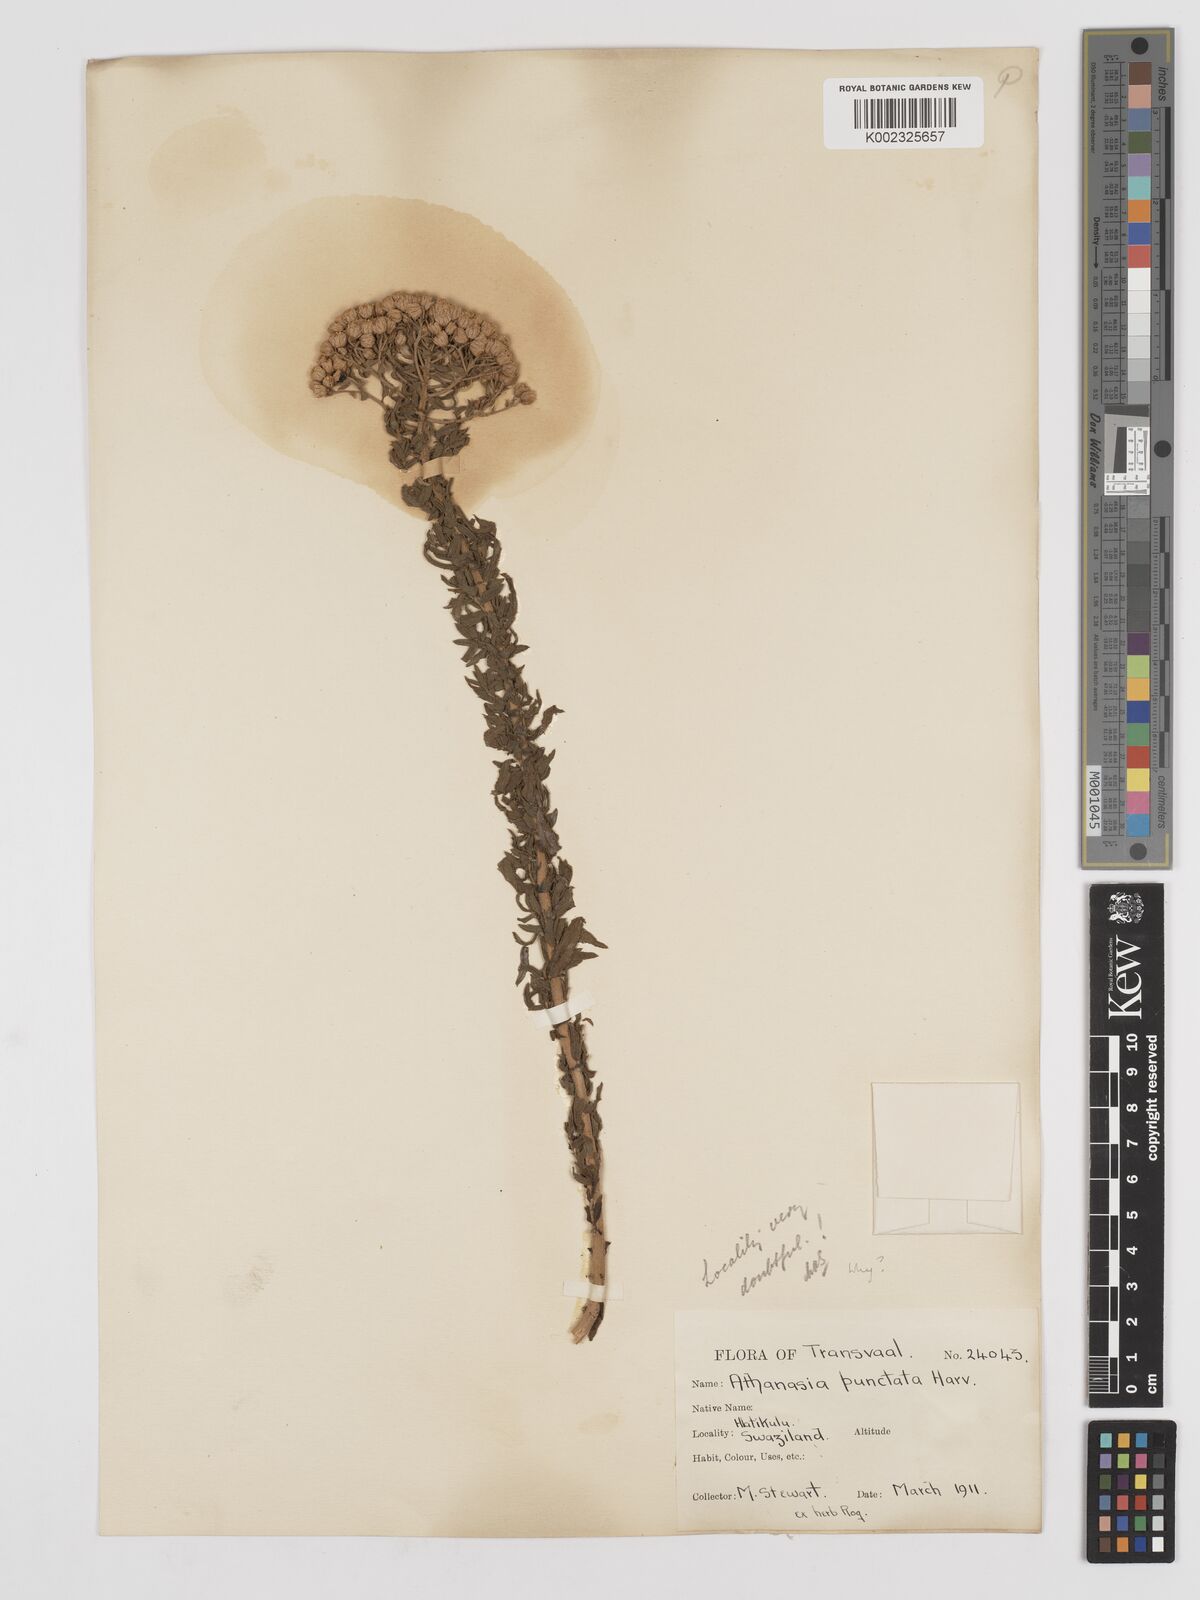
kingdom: Plantae
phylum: Tracheophyta
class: Magnoliopsida
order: Asterales
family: Asteraceae
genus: Inulanthera
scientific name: Inulanthera dregeana
